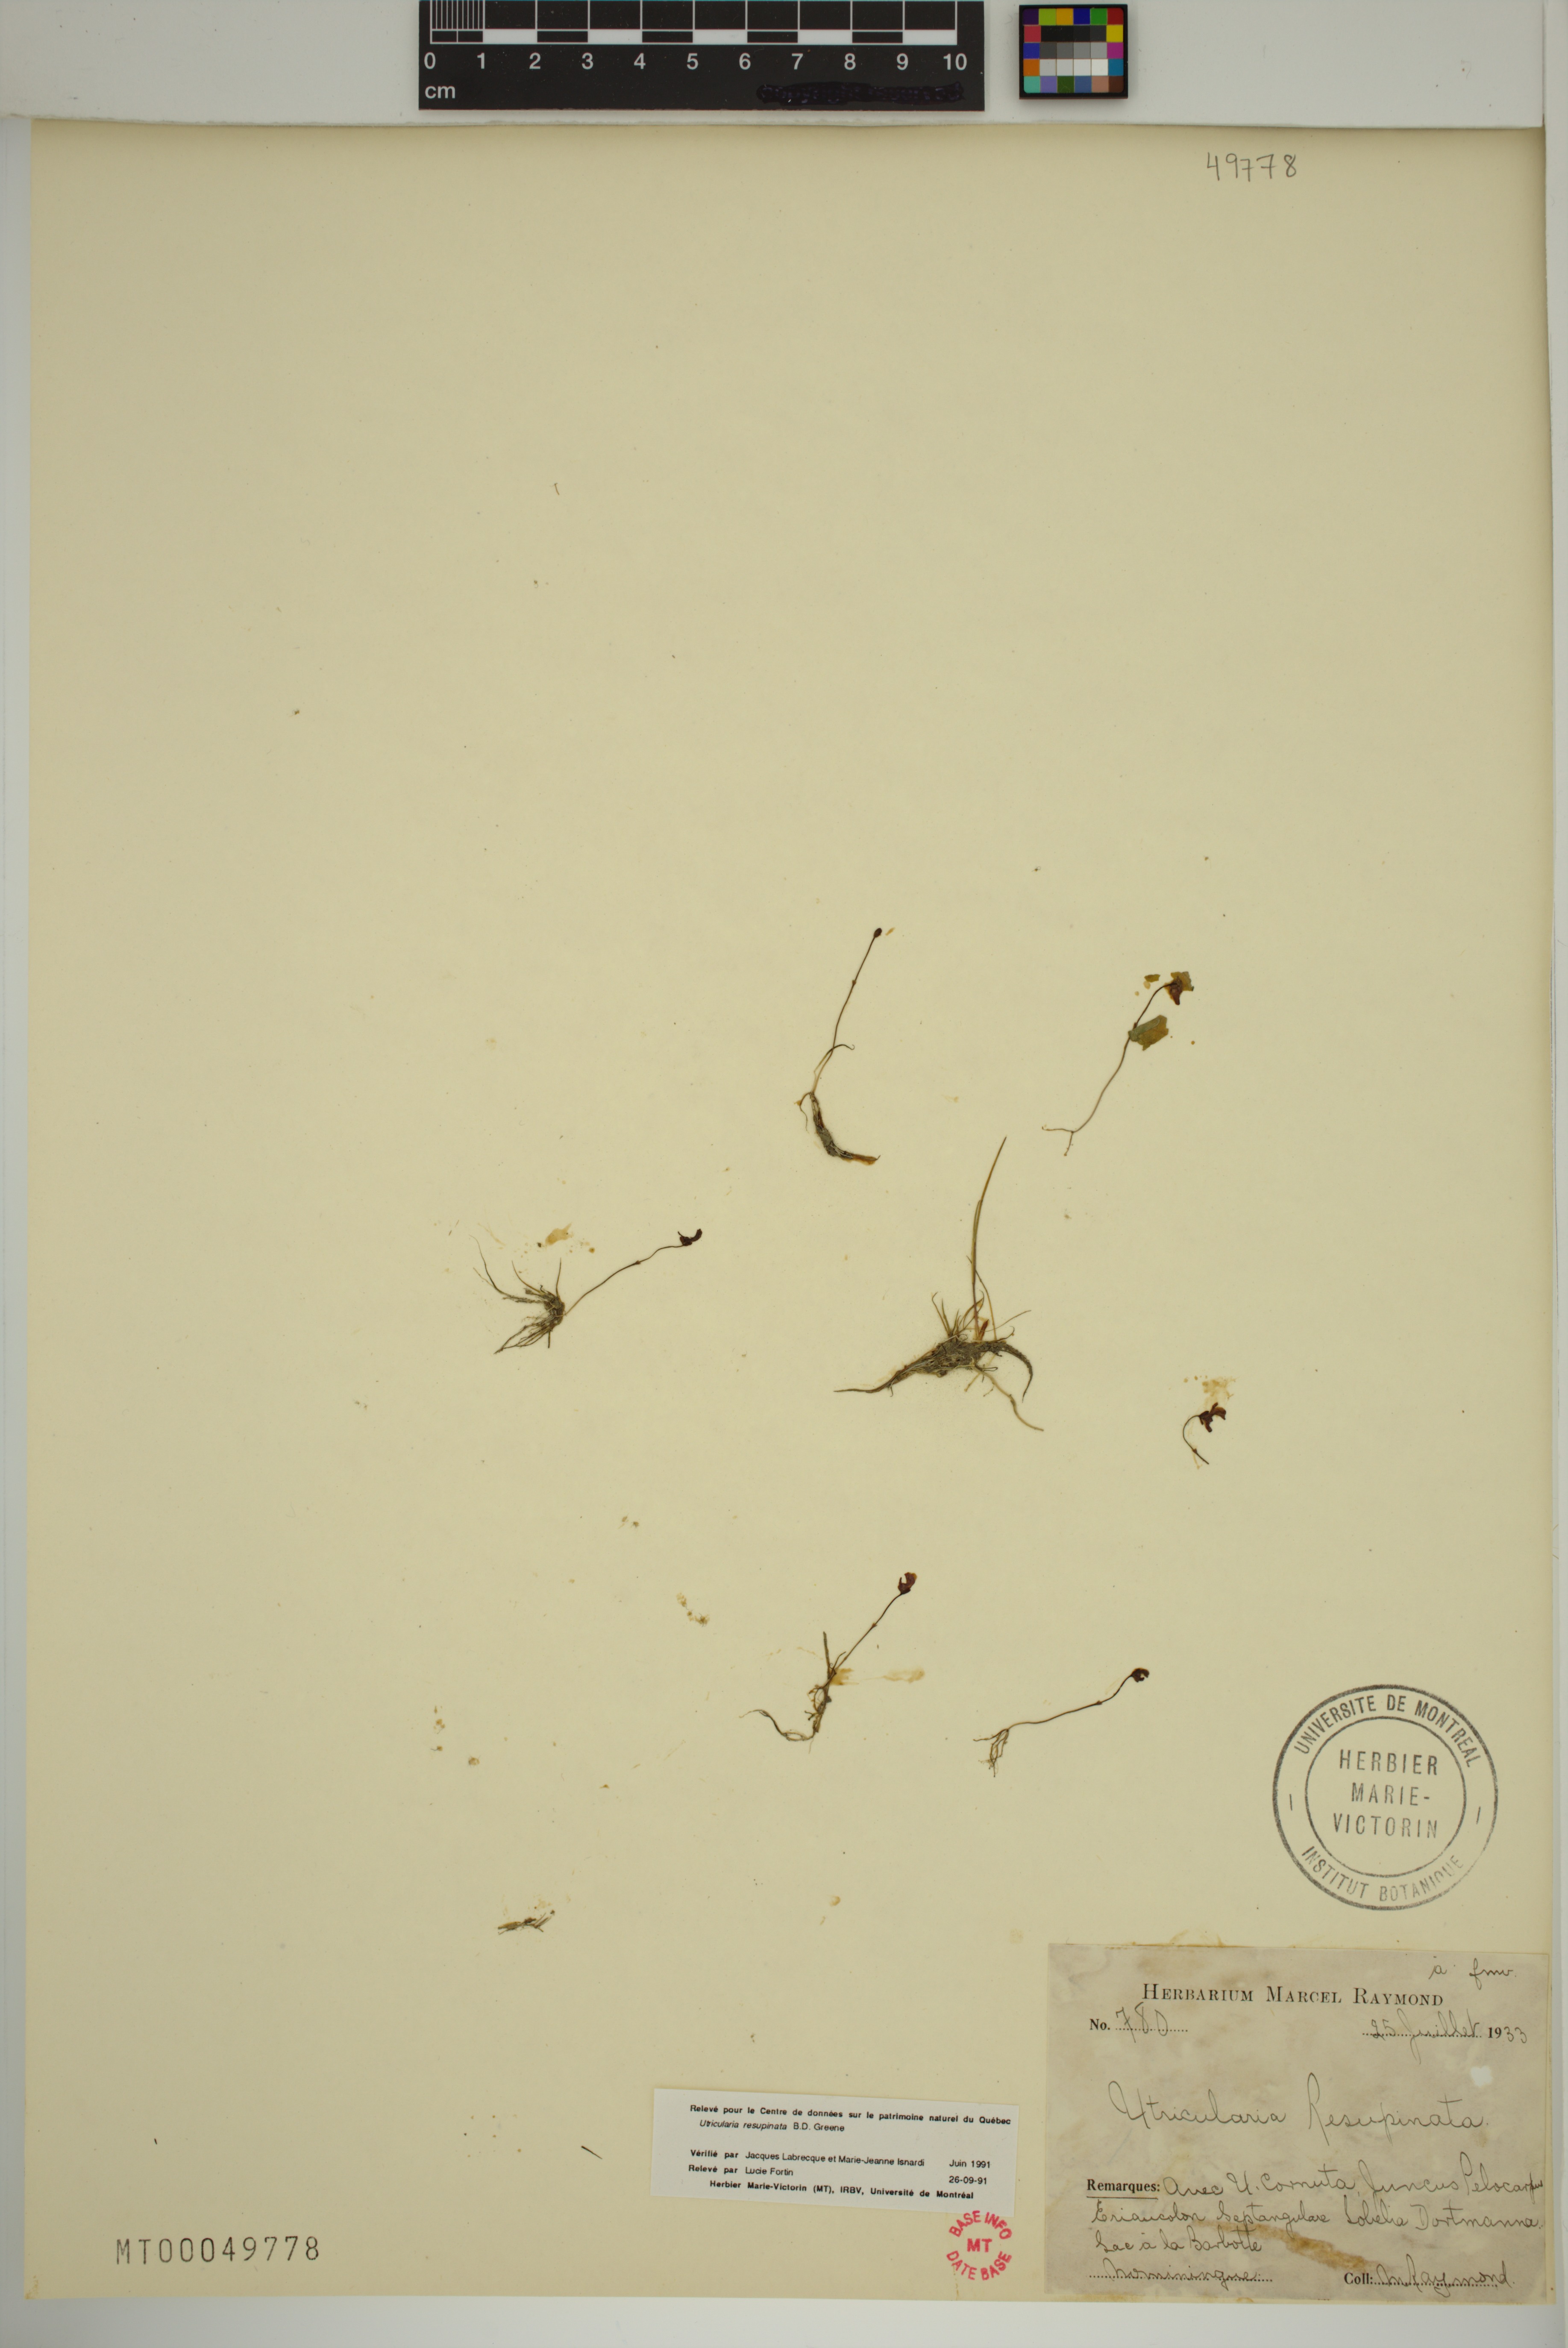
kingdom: Plantae
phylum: Tracheophyta
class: Magnoliopsida
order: Lamiales
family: Lentibulariaceae
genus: Utricularia
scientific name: Utricularia resupinata
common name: Northeastern bladderwort
